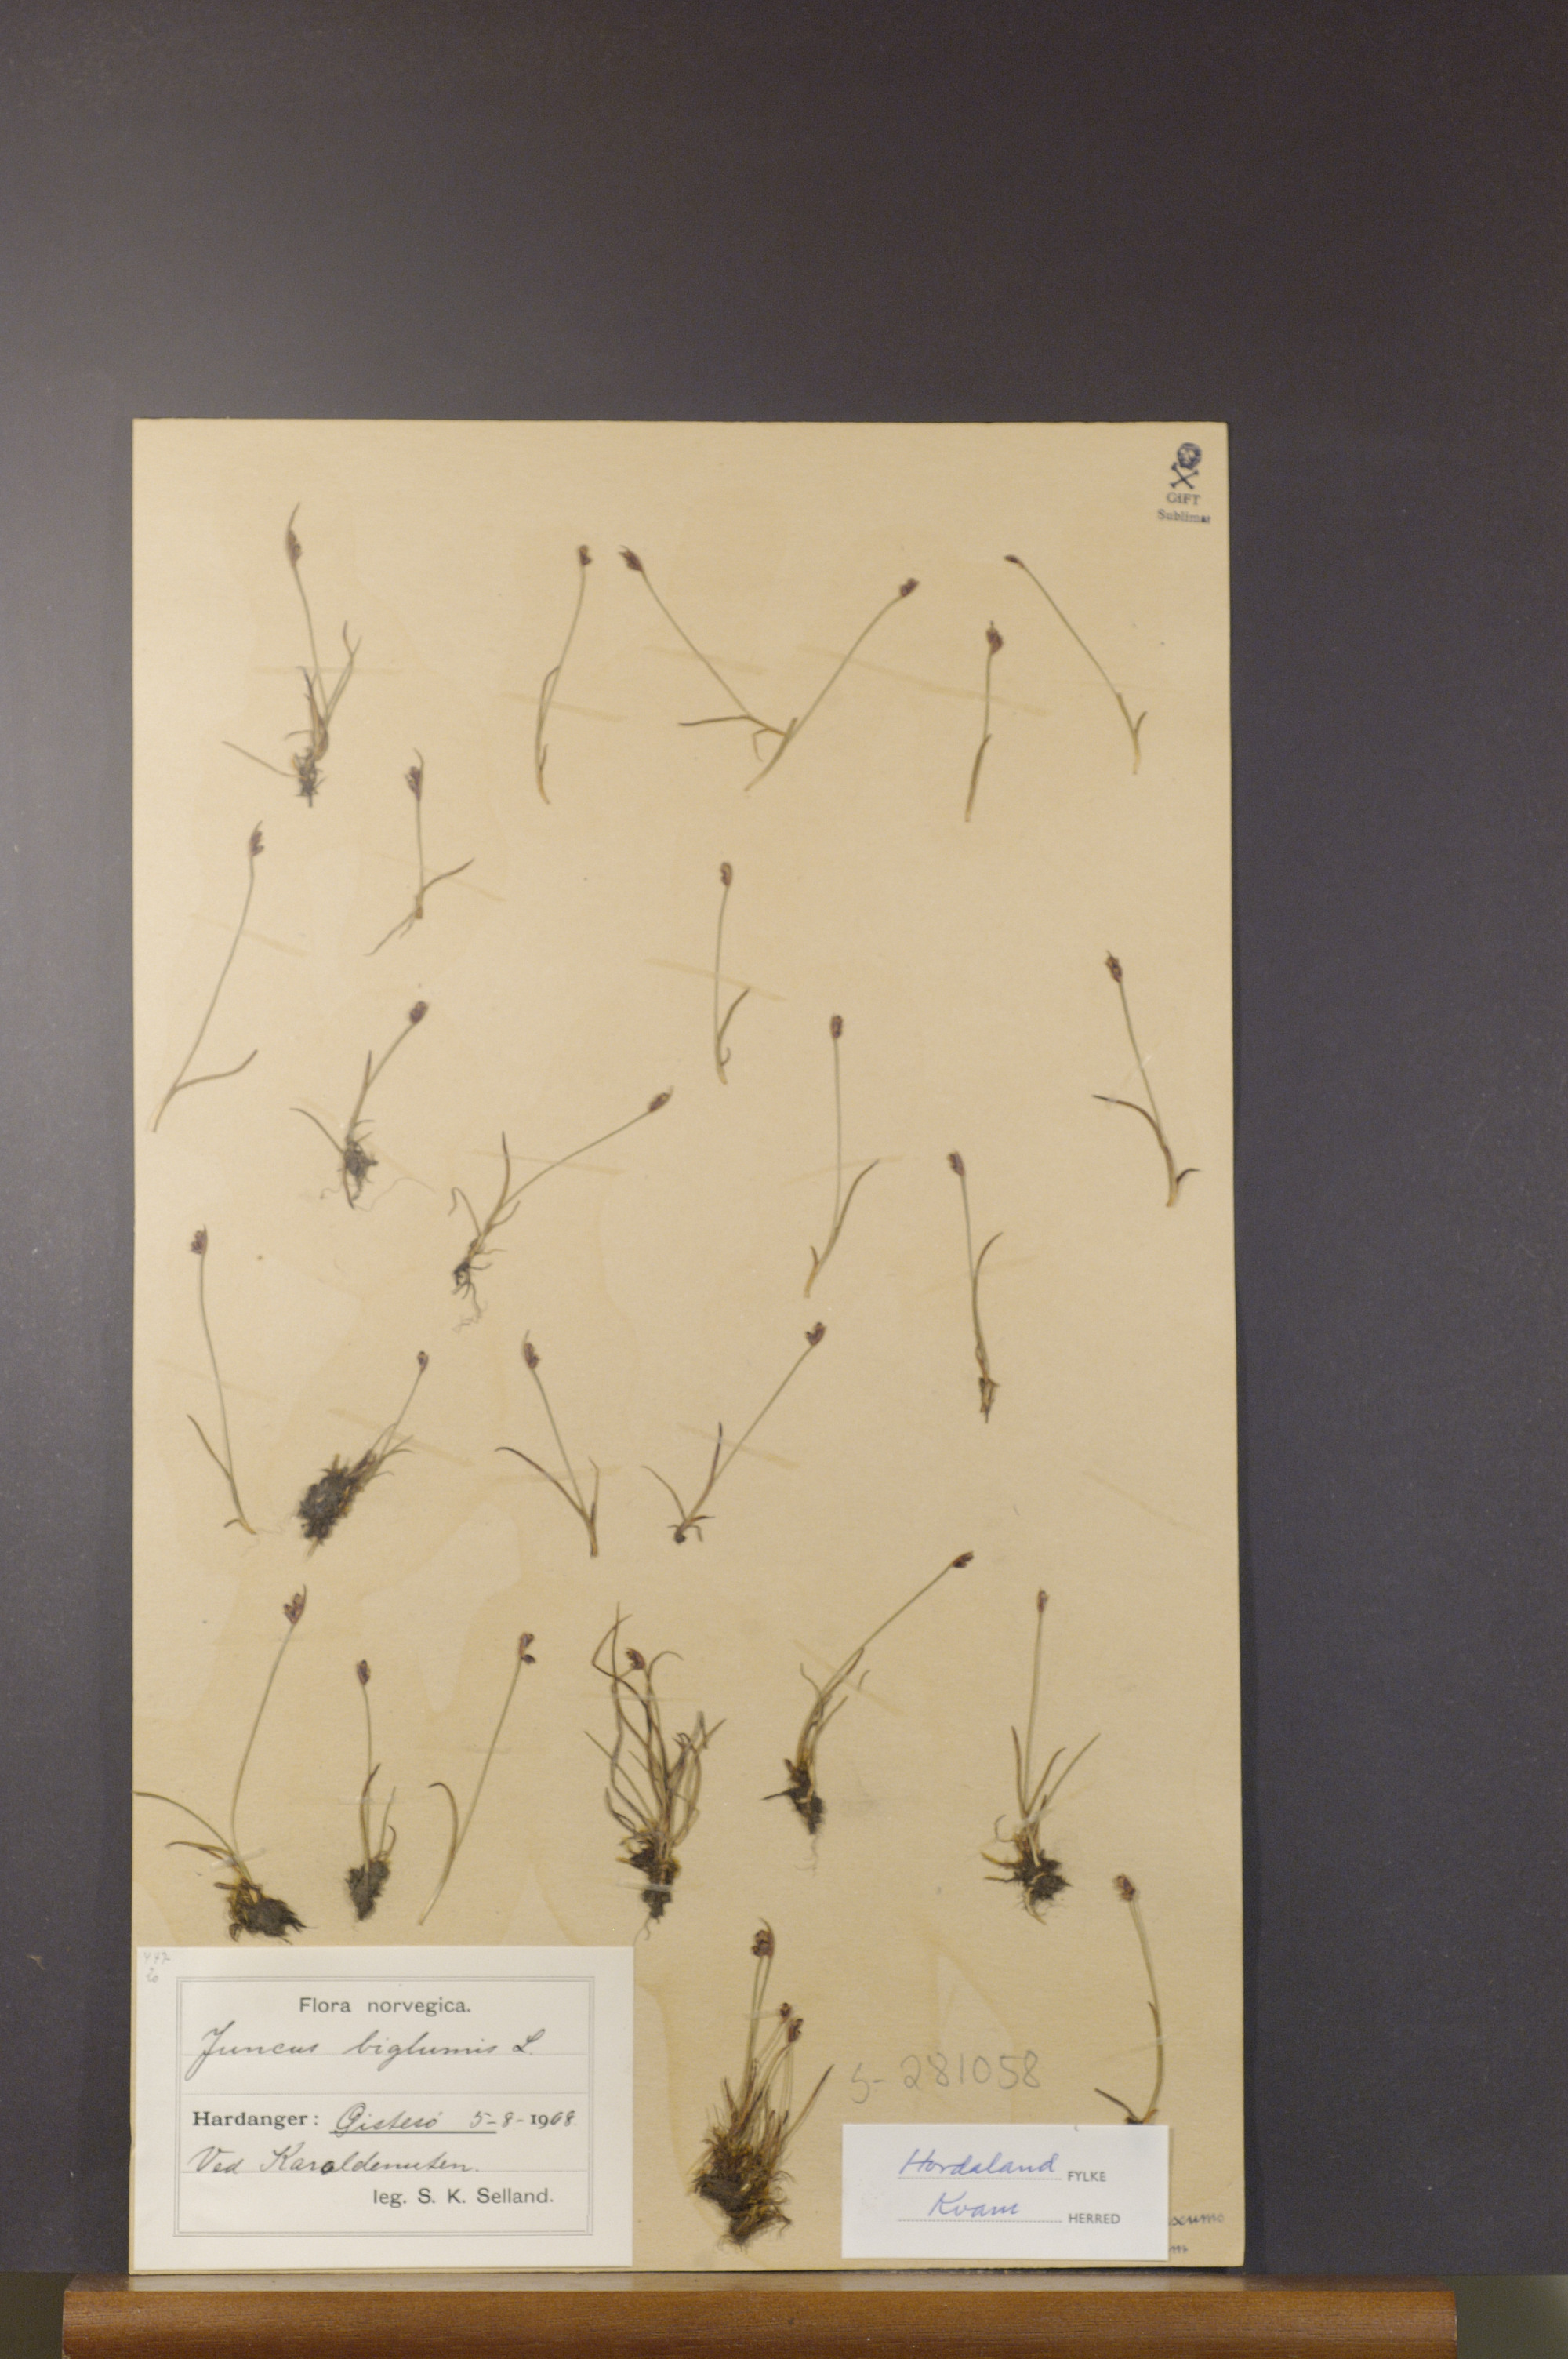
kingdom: Plantae
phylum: Tracheophyta
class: Liliopsida
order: Poales
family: Juncaceae
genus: Juncus
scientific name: Juncus biglumis
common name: Two-flowered rush
